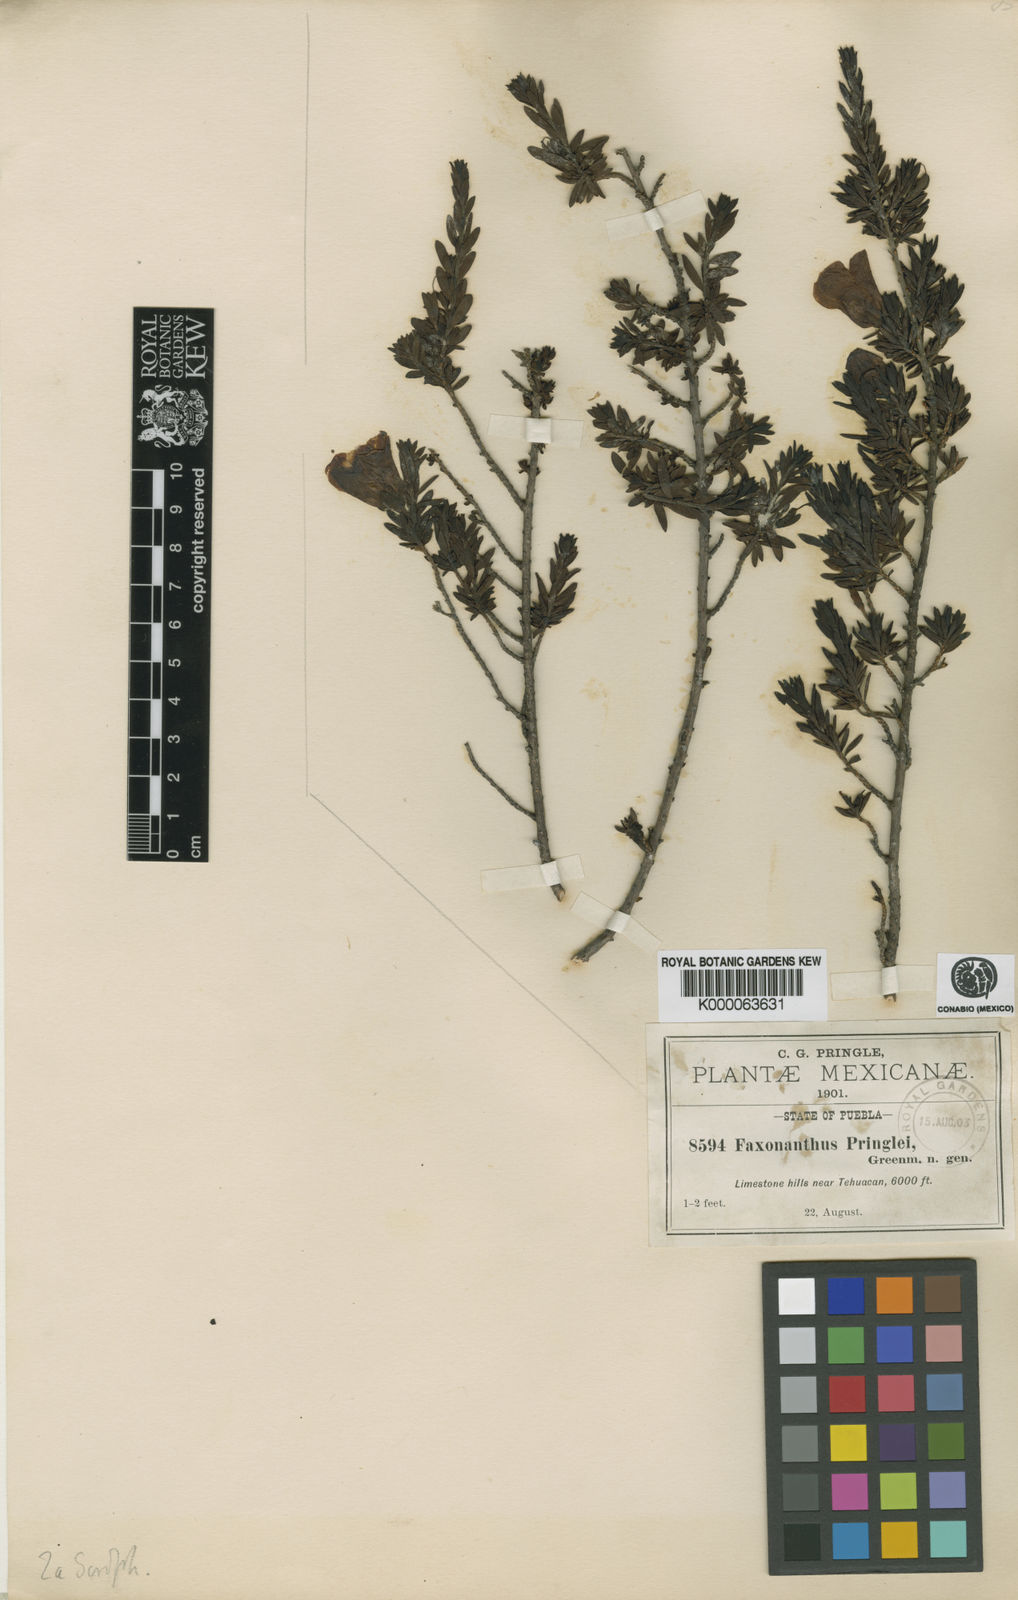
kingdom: Plantae
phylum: Tracheophyta
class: Magnoliopsida
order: Lamiales
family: Scrophulariaceae
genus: Leucophyllum
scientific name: Leucophyllum pringlei
